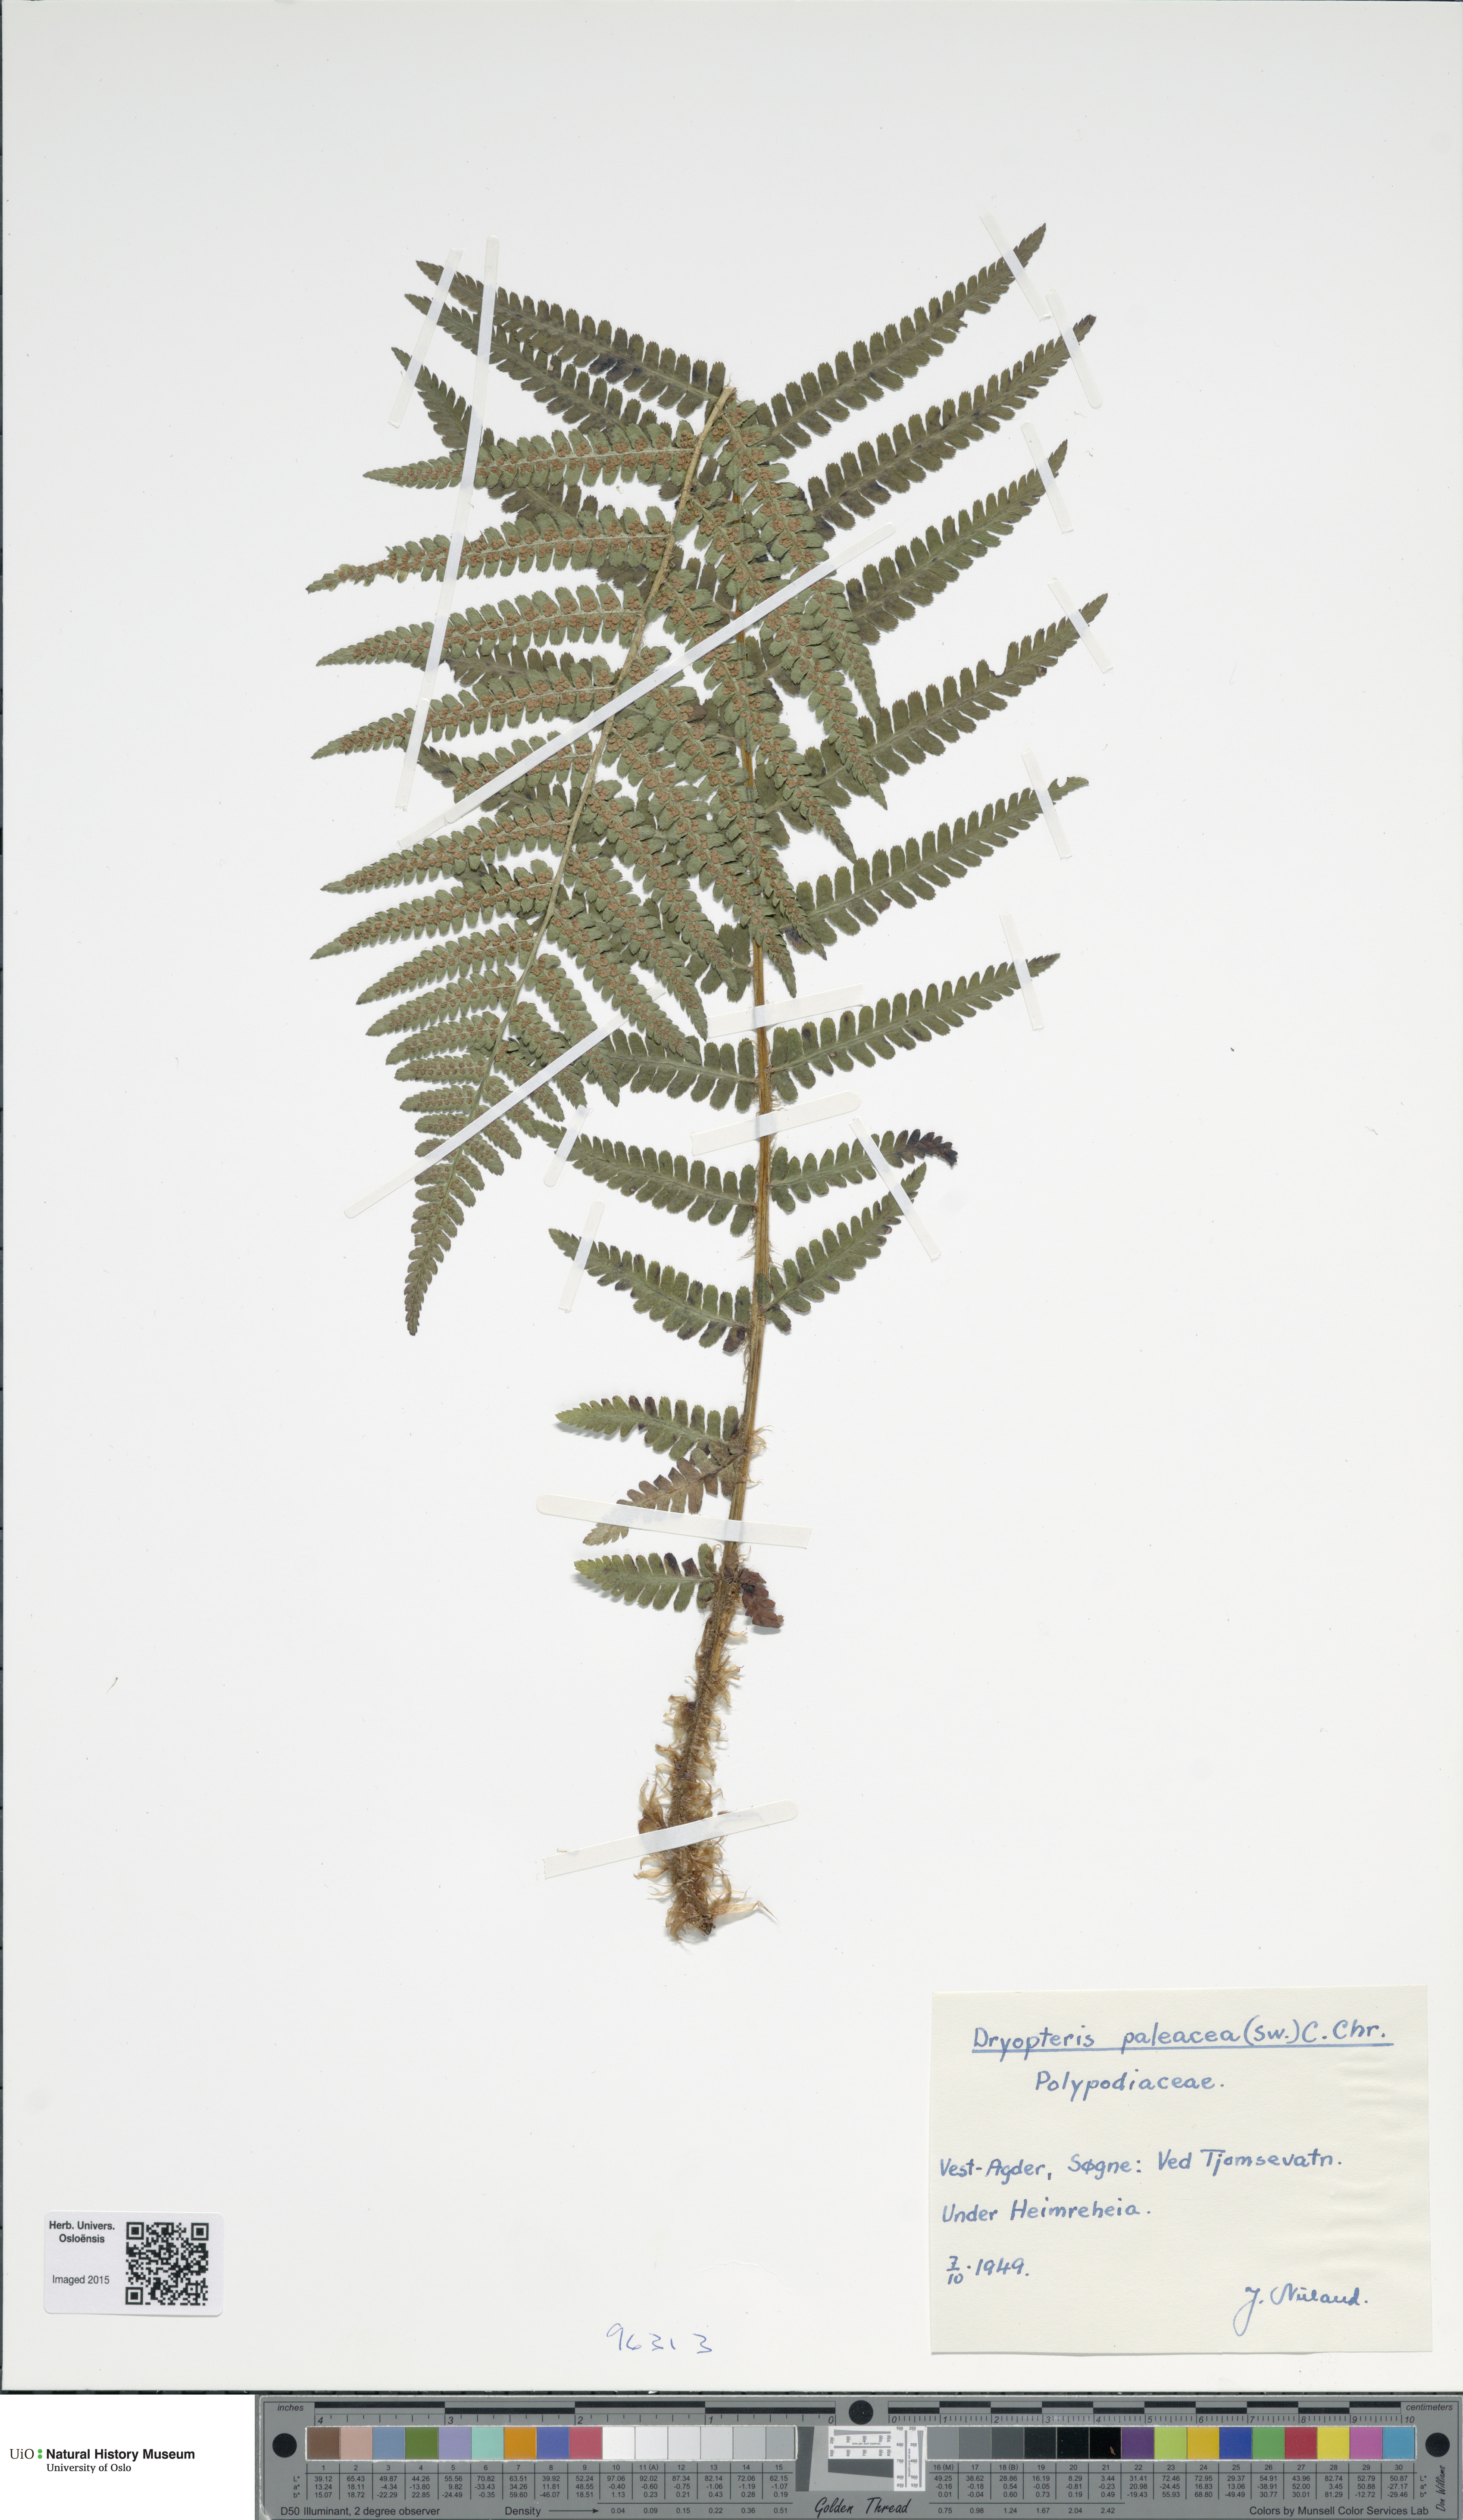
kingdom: Plantae
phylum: Tracheophyta
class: Polypodiopsida
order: Polypodiales
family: Dryopteridaceae
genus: Dryopteris
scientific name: Dryopteris wallichiana
